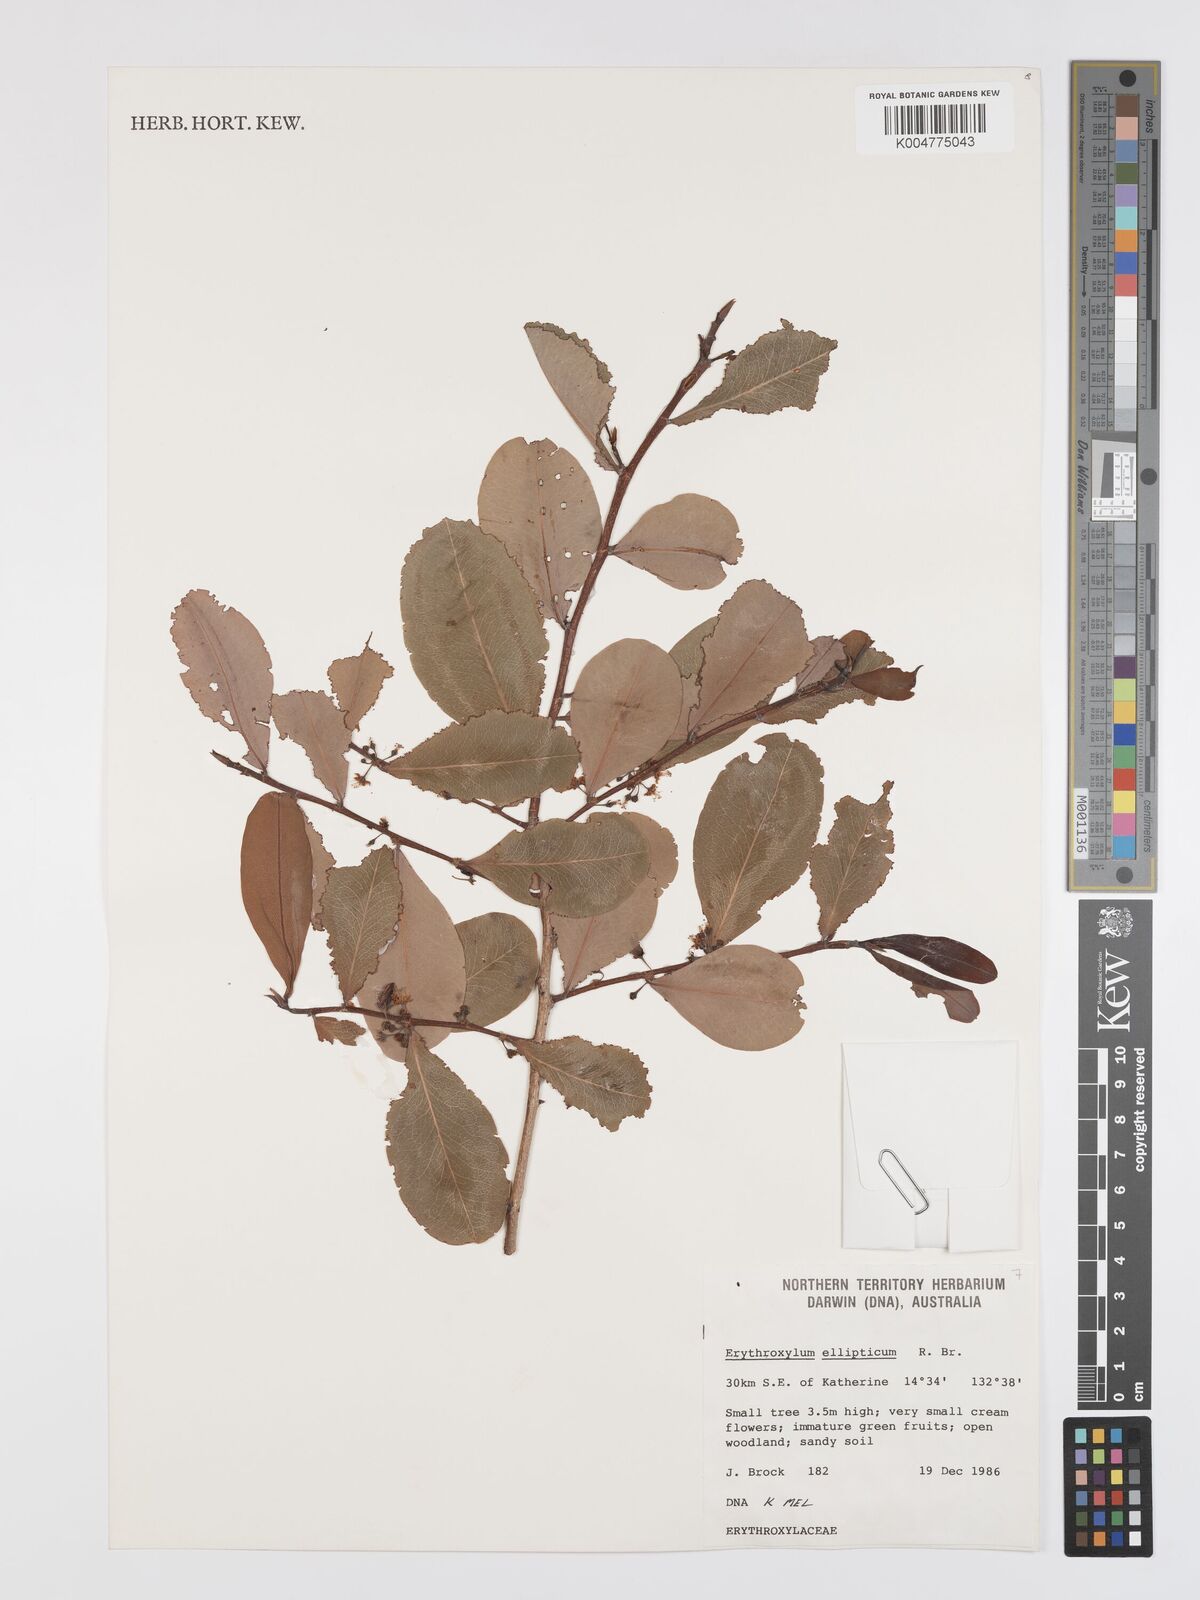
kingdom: Plantae
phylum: Tracheophyta
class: Magnoliopsida
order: Malpighiales
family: Erythroxylaceae
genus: Erythroxylum
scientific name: Erythroxylum
